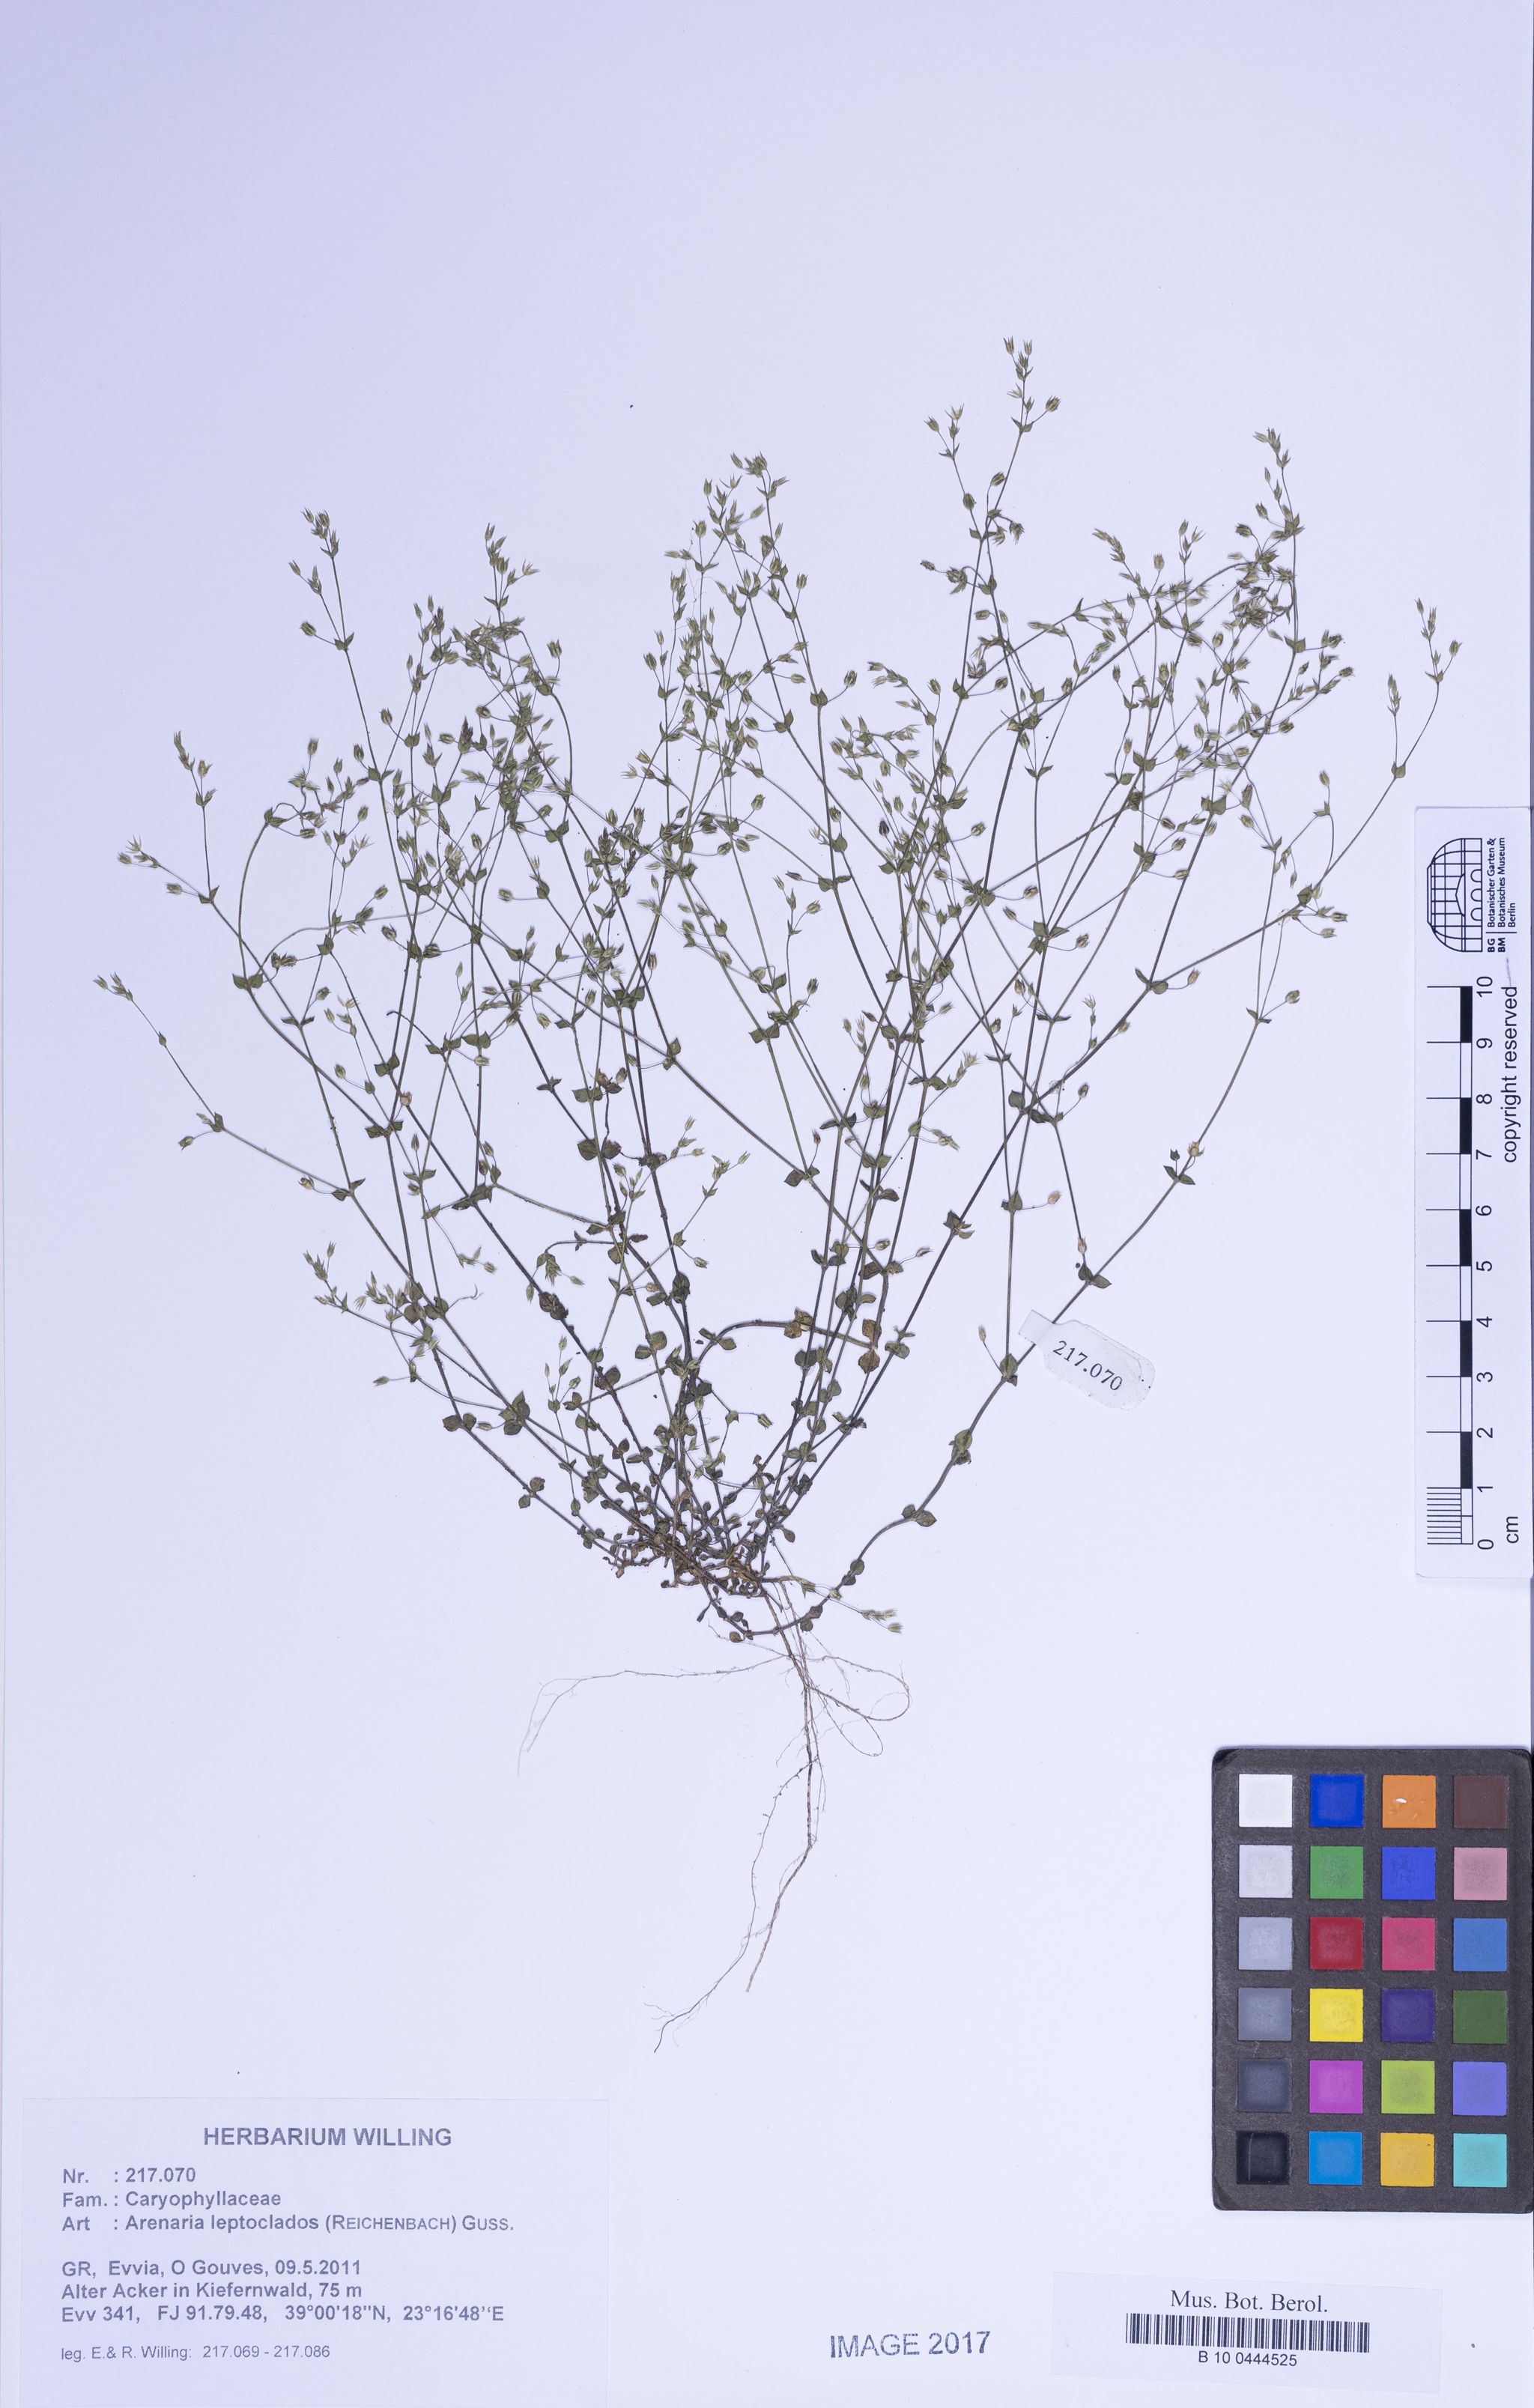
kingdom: Plantae
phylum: Tracheophyta
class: Magnoliopsida
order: Caryophyllales
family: Caryophyllaceae
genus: Arenaria
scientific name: Arenaria leptoclados
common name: Thyme-leaved sandwort
